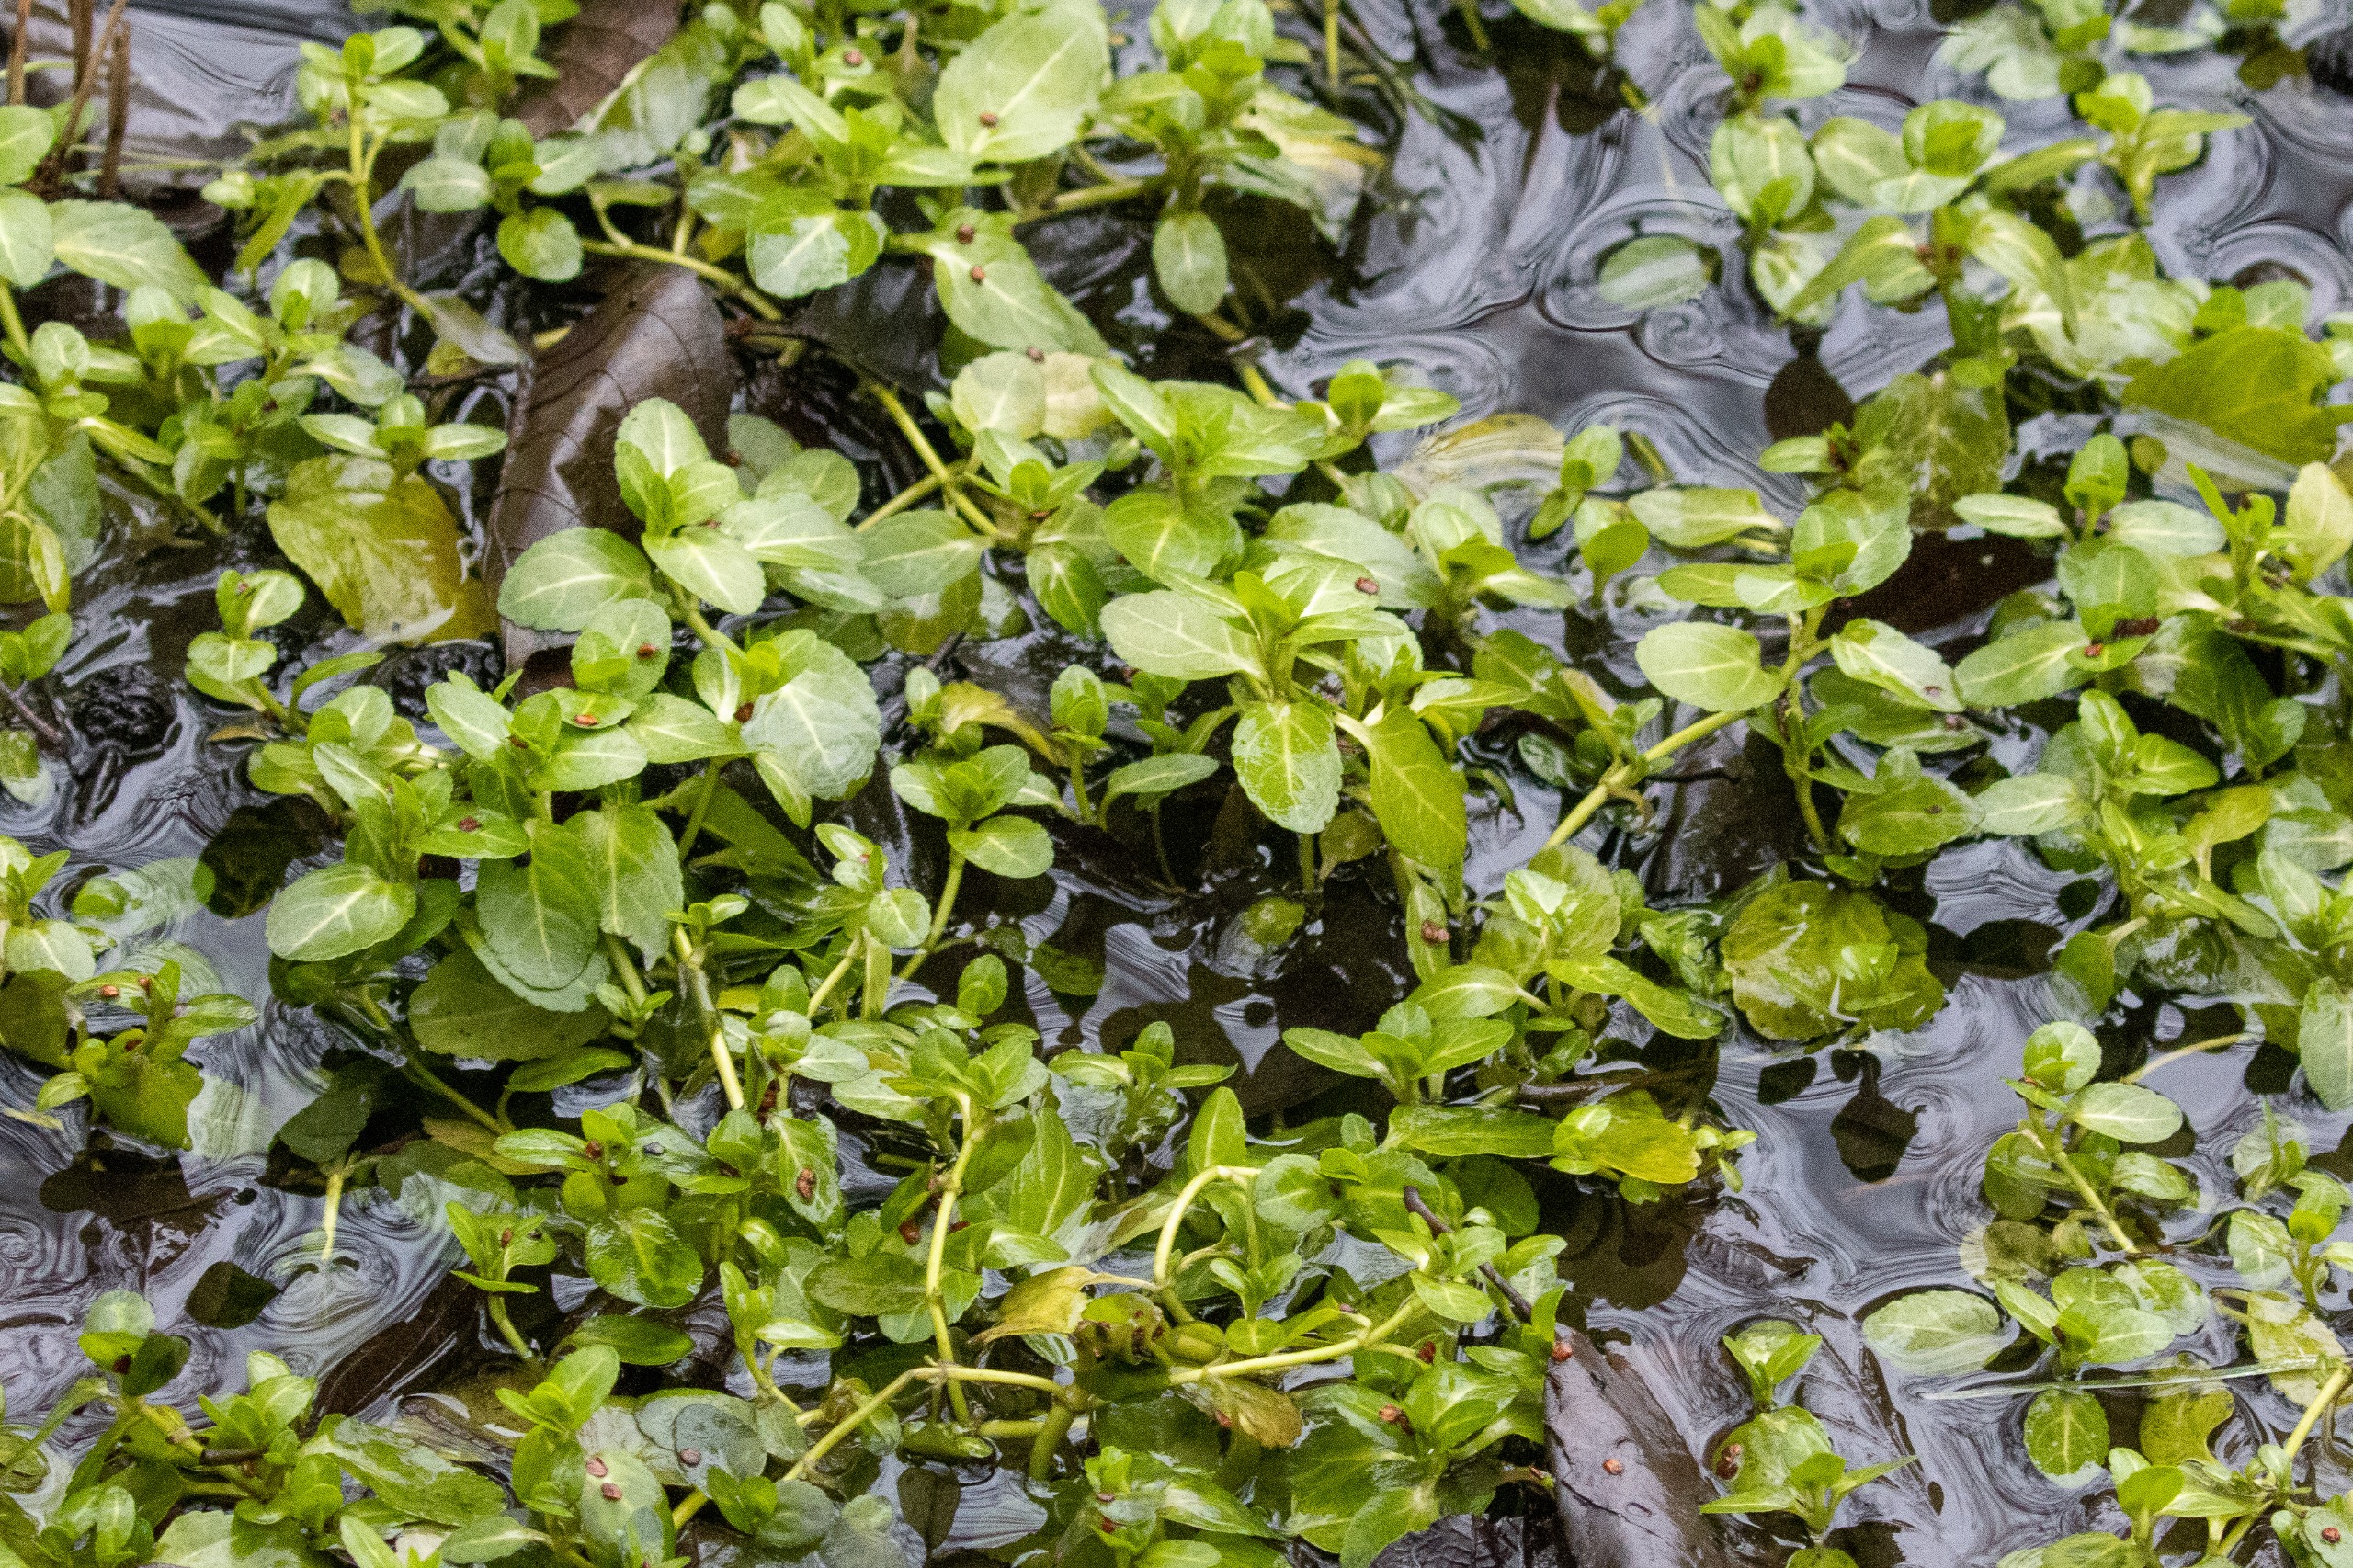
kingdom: Plantae
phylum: Tracheophyta
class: Magnoliopsida
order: Lamiales
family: Plantaginaceae
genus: Veronica
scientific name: Veronica beccabunga
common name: Tykbladet ærenpris
